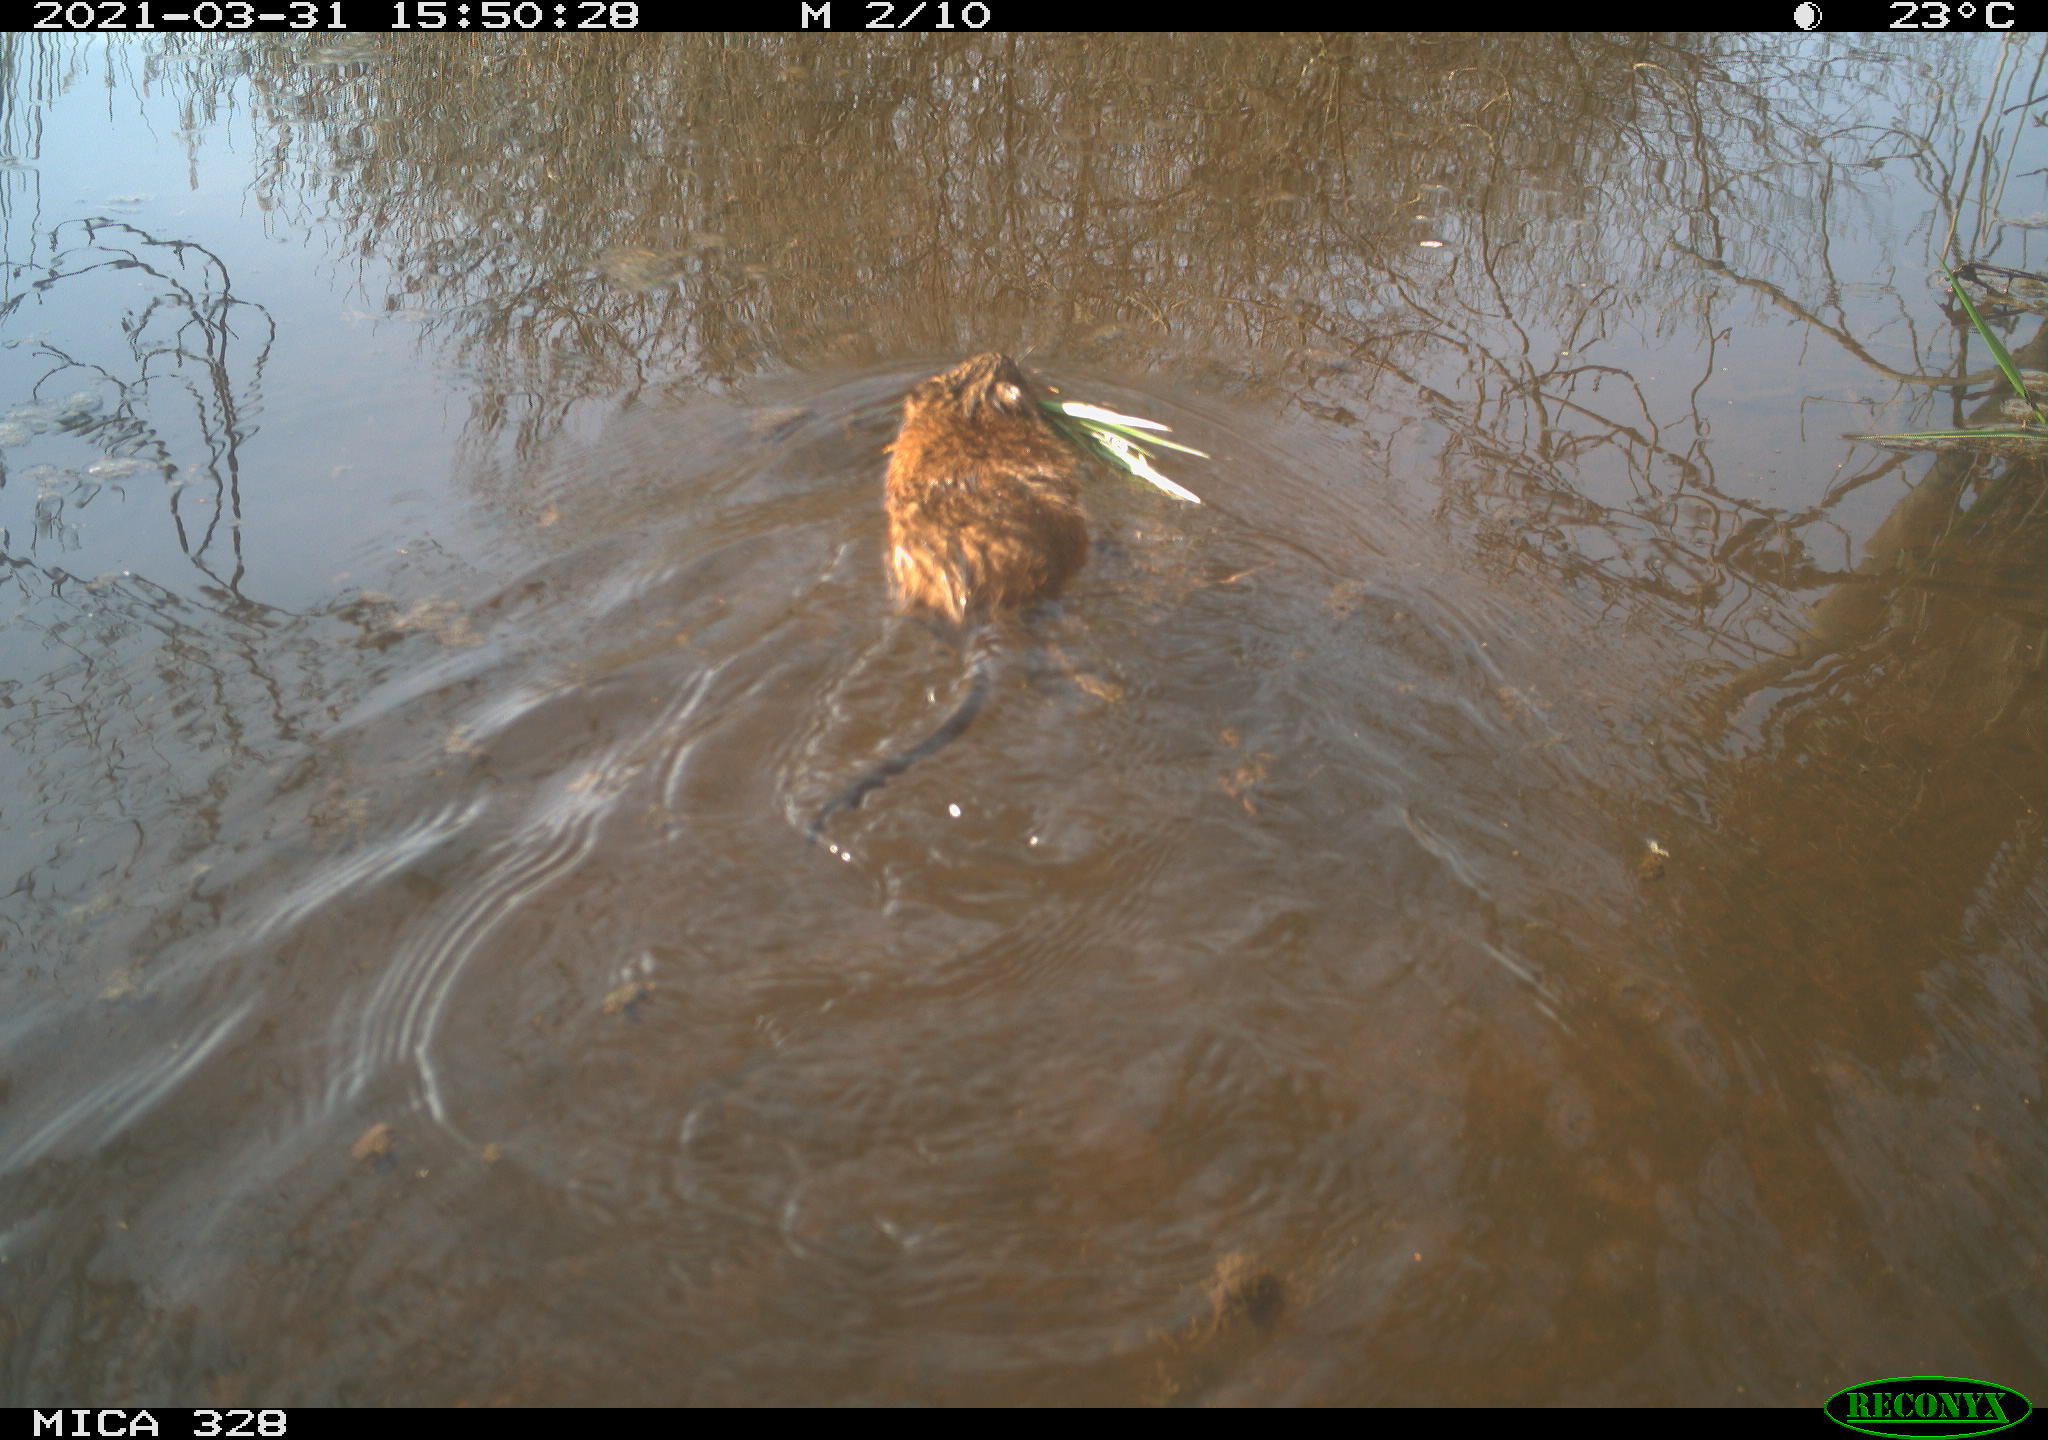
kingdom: Animalia
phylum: Chordata
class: Mammalia
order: Rodentia
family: Cricetidae
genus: Ondatra
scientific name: Ondatra zibethicus
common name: Muskrat
